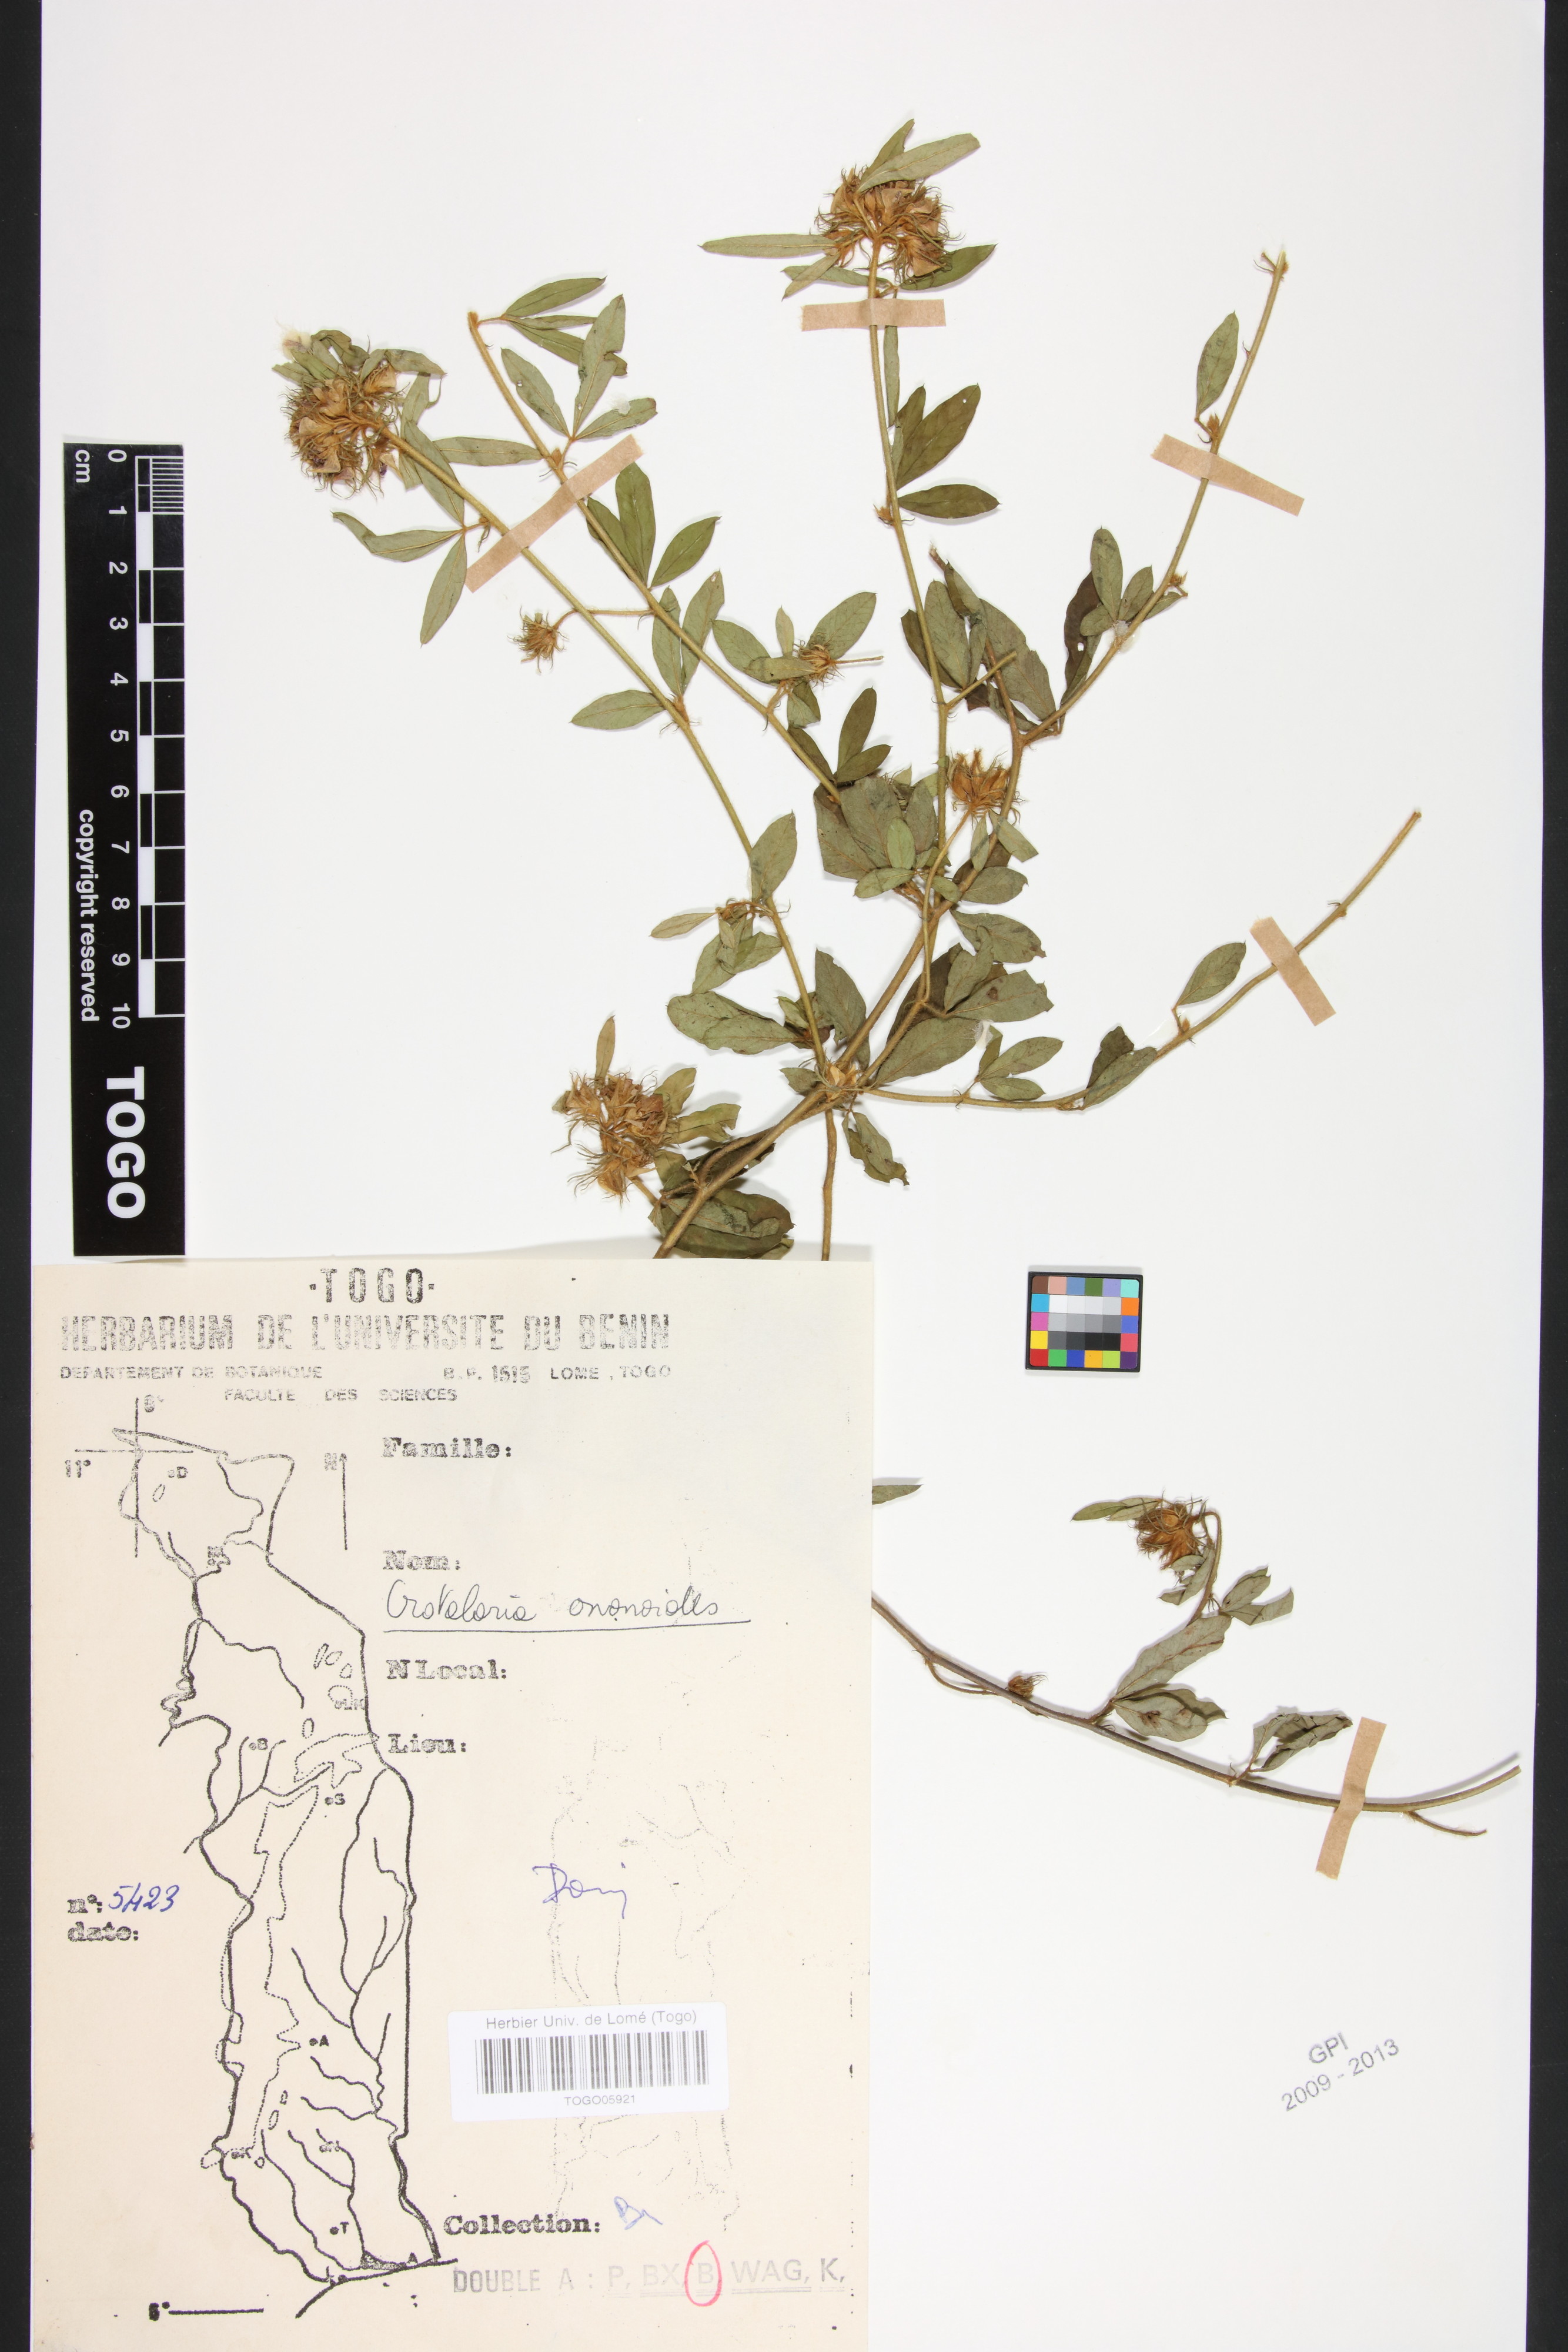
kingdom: Plantae
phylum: Tracheophyta
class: Magnoliopsida
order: Fabales
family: Fabaceae
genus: Crotalaria
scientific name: Crotalaria ononoides
